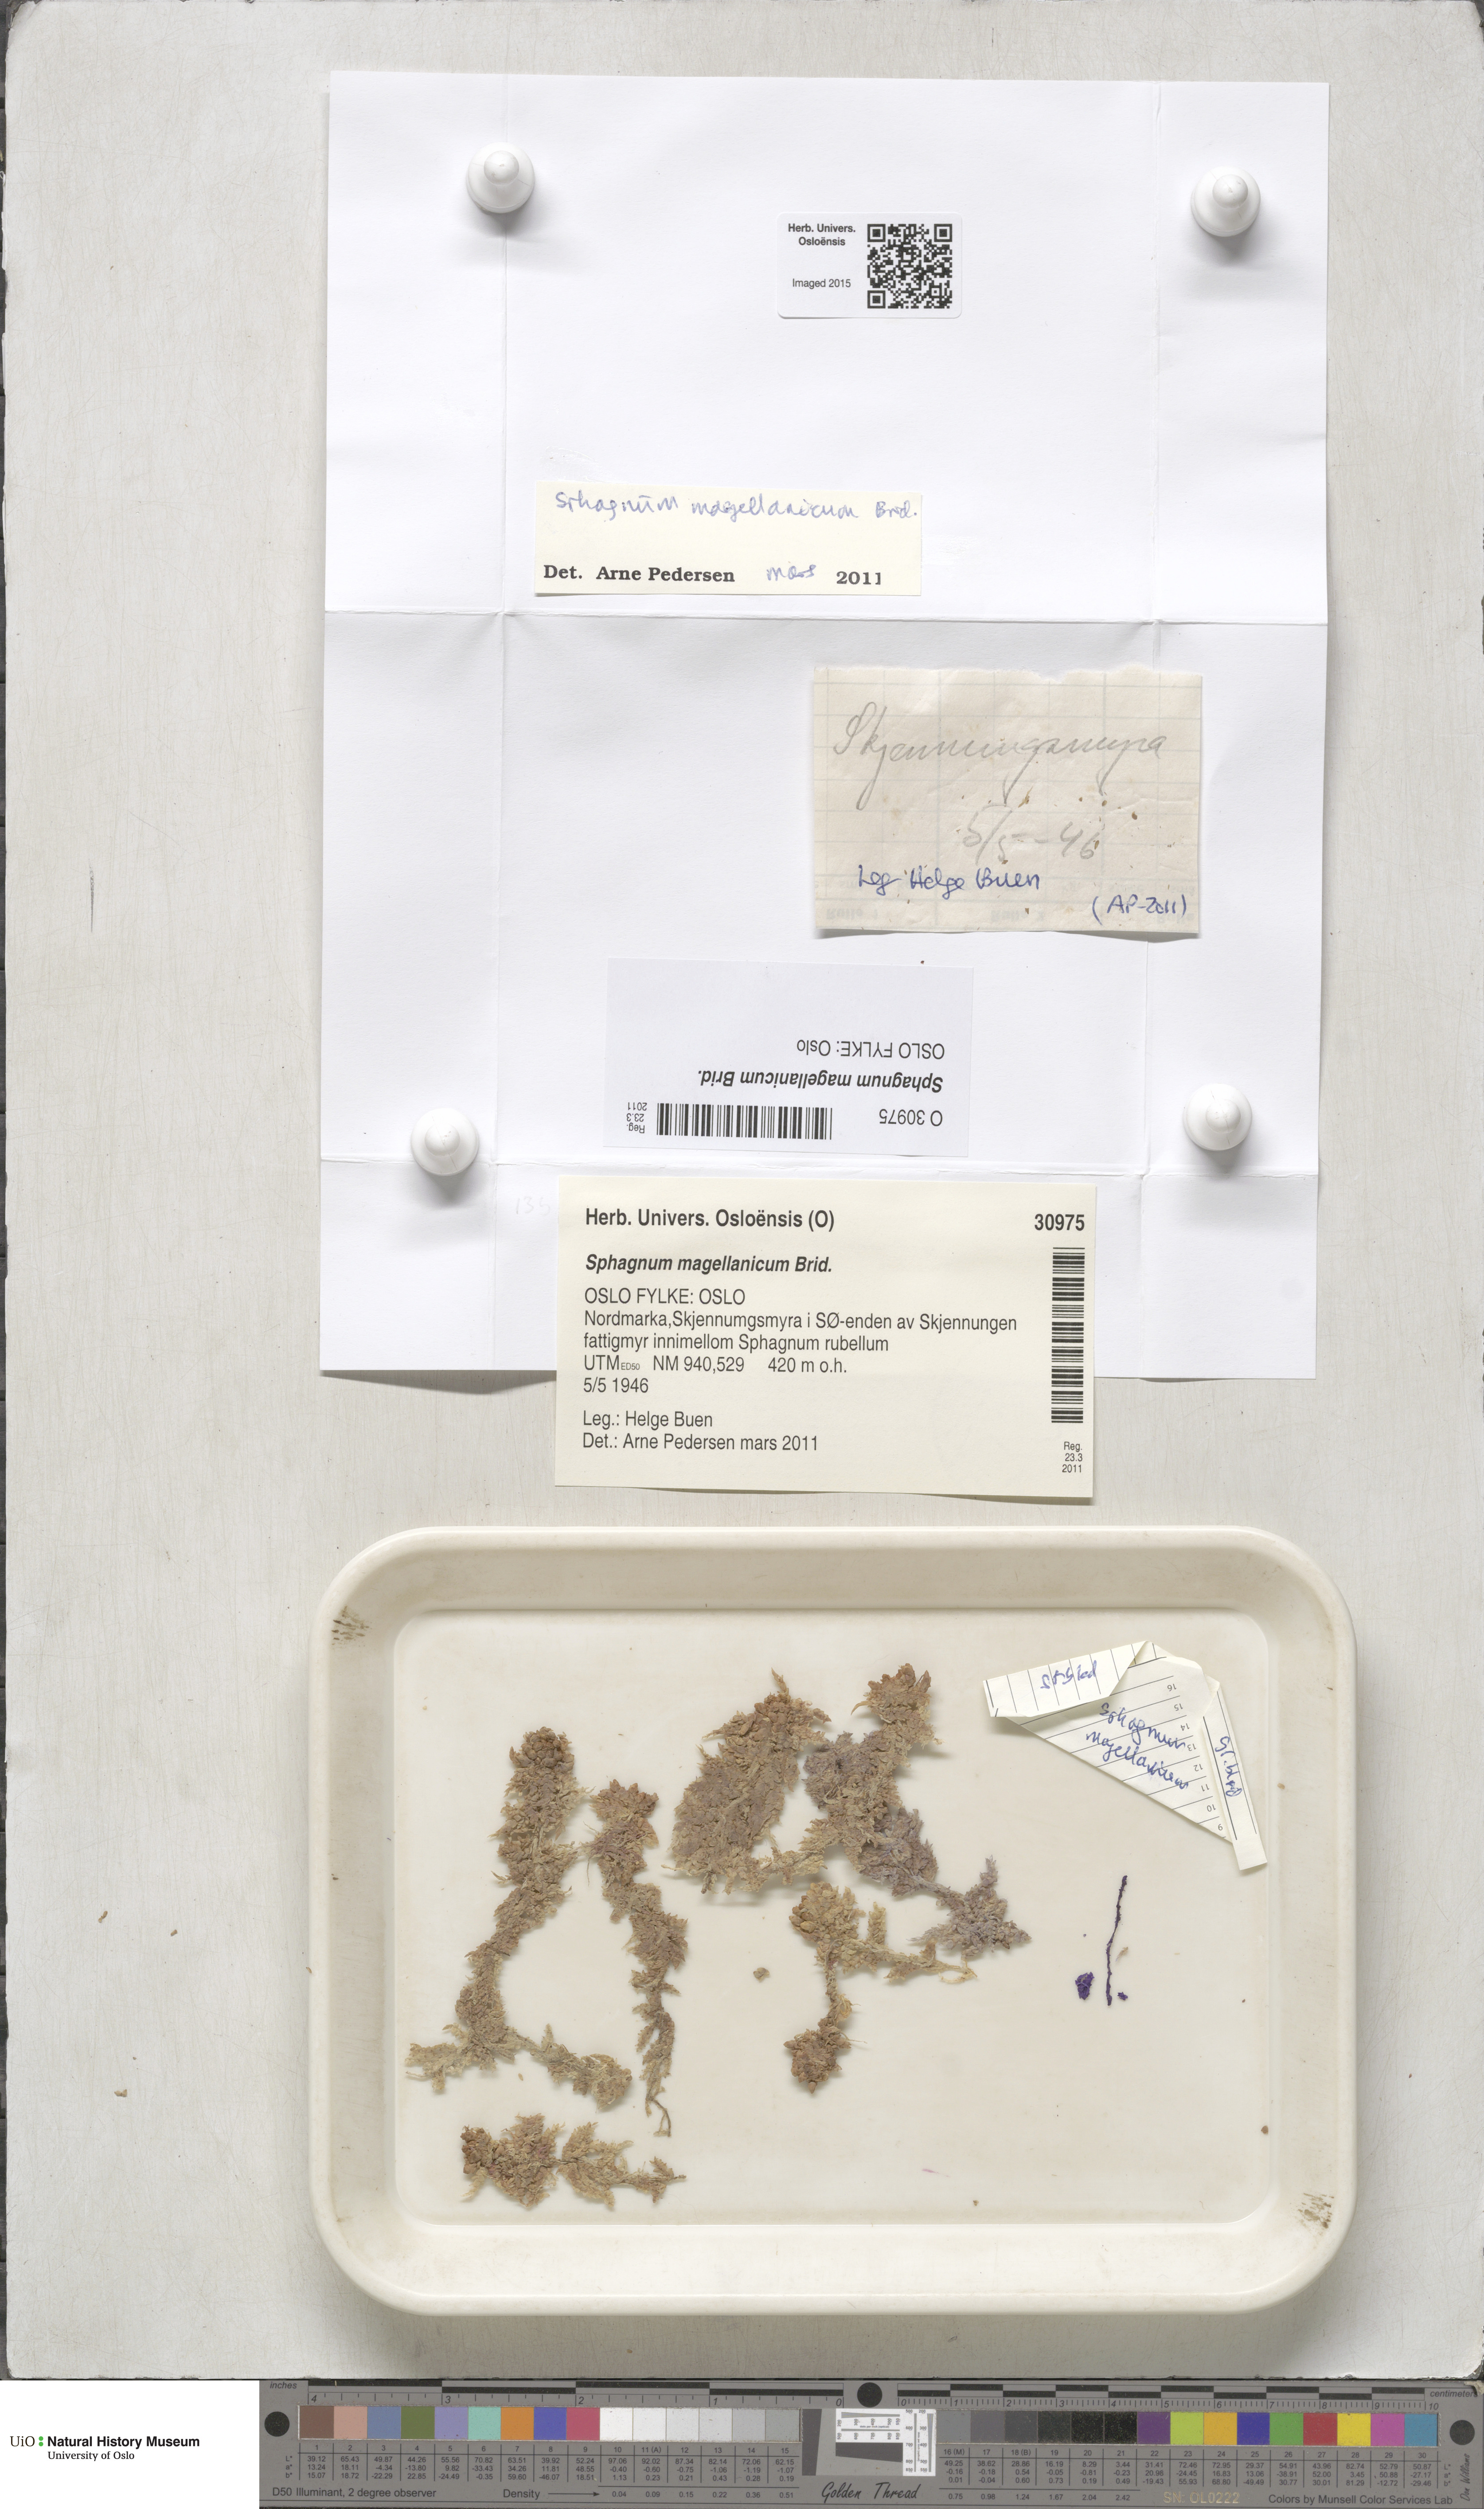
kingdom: Plantae
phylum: Bryophyta
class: Sphagnopsida
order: Sphagnales
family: Sphagnaceae
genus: Sphagnum
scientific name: Sphagnum magellanicum
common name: Magellan's peat moss
